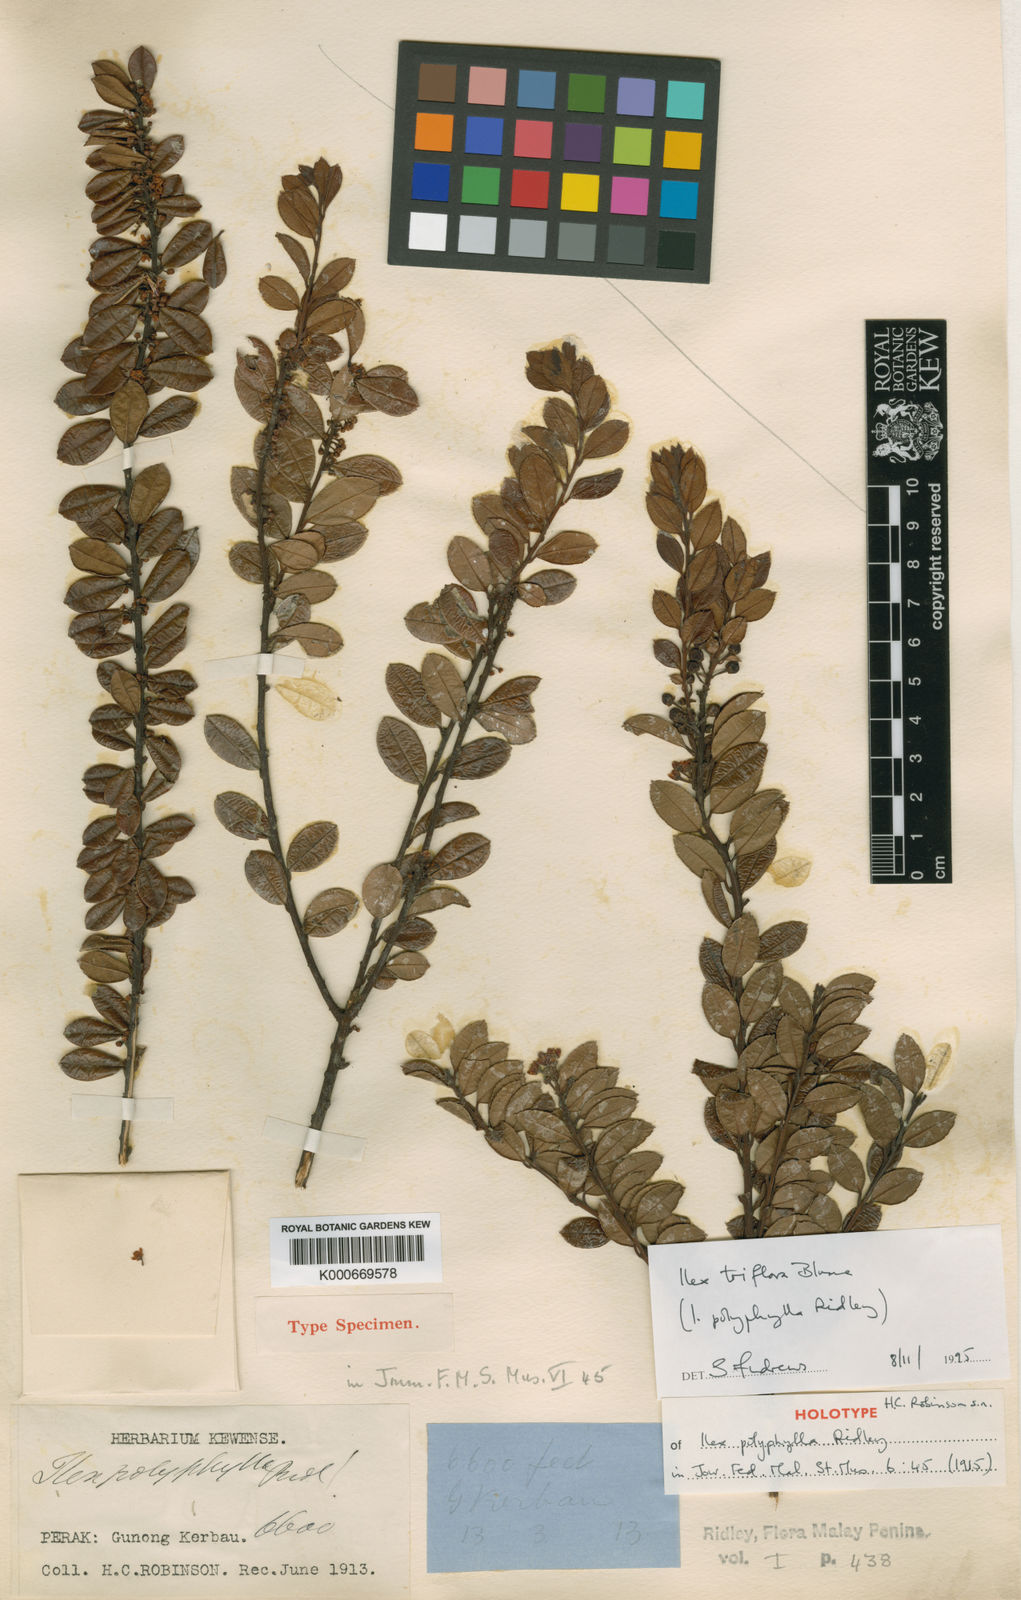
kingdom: Plantae
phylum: Tracheophyta
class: Magnoliopsida
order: Aquifoliales
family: Aquifoliaceae
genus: Ilex
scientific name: Ilex triflora
